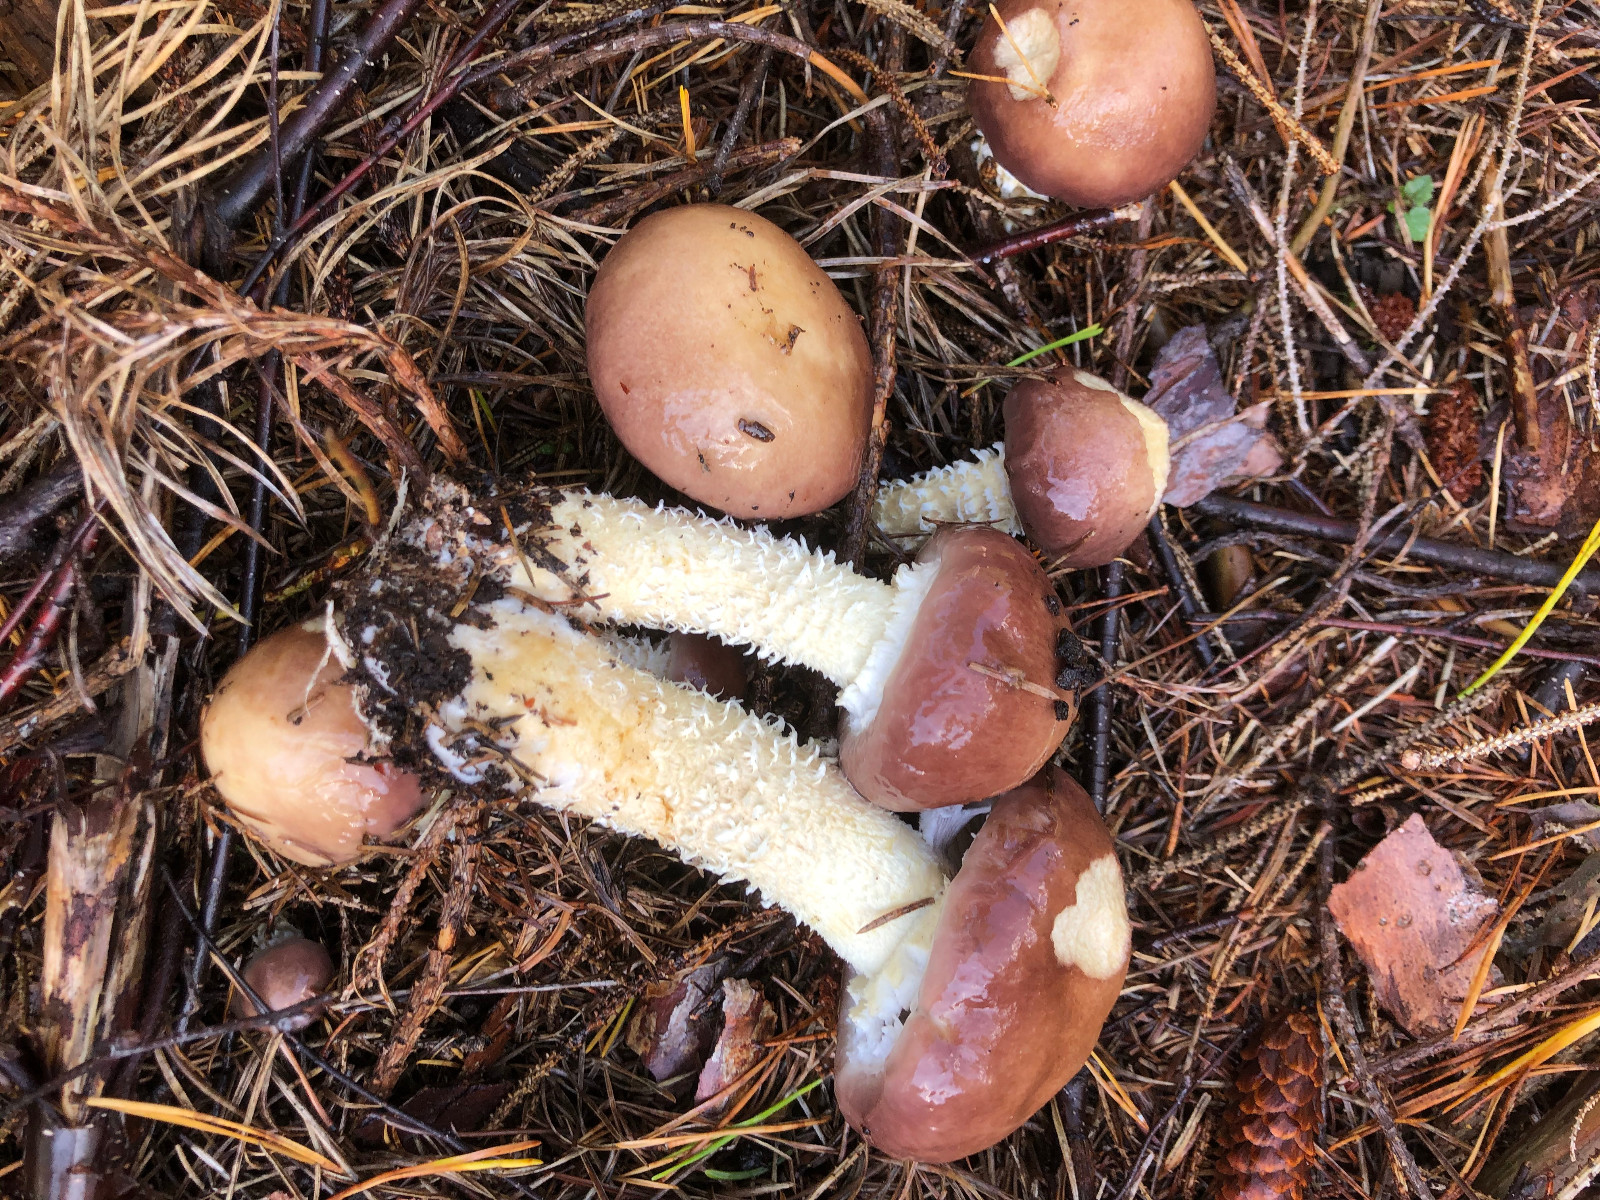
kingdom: Fungi
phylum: Basidiomycota
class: Agaricomycetes
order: Agaricales
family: Strophariaceae
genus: Stropharia
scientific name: Stropharia hornemannii
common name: nordisk bredblad
